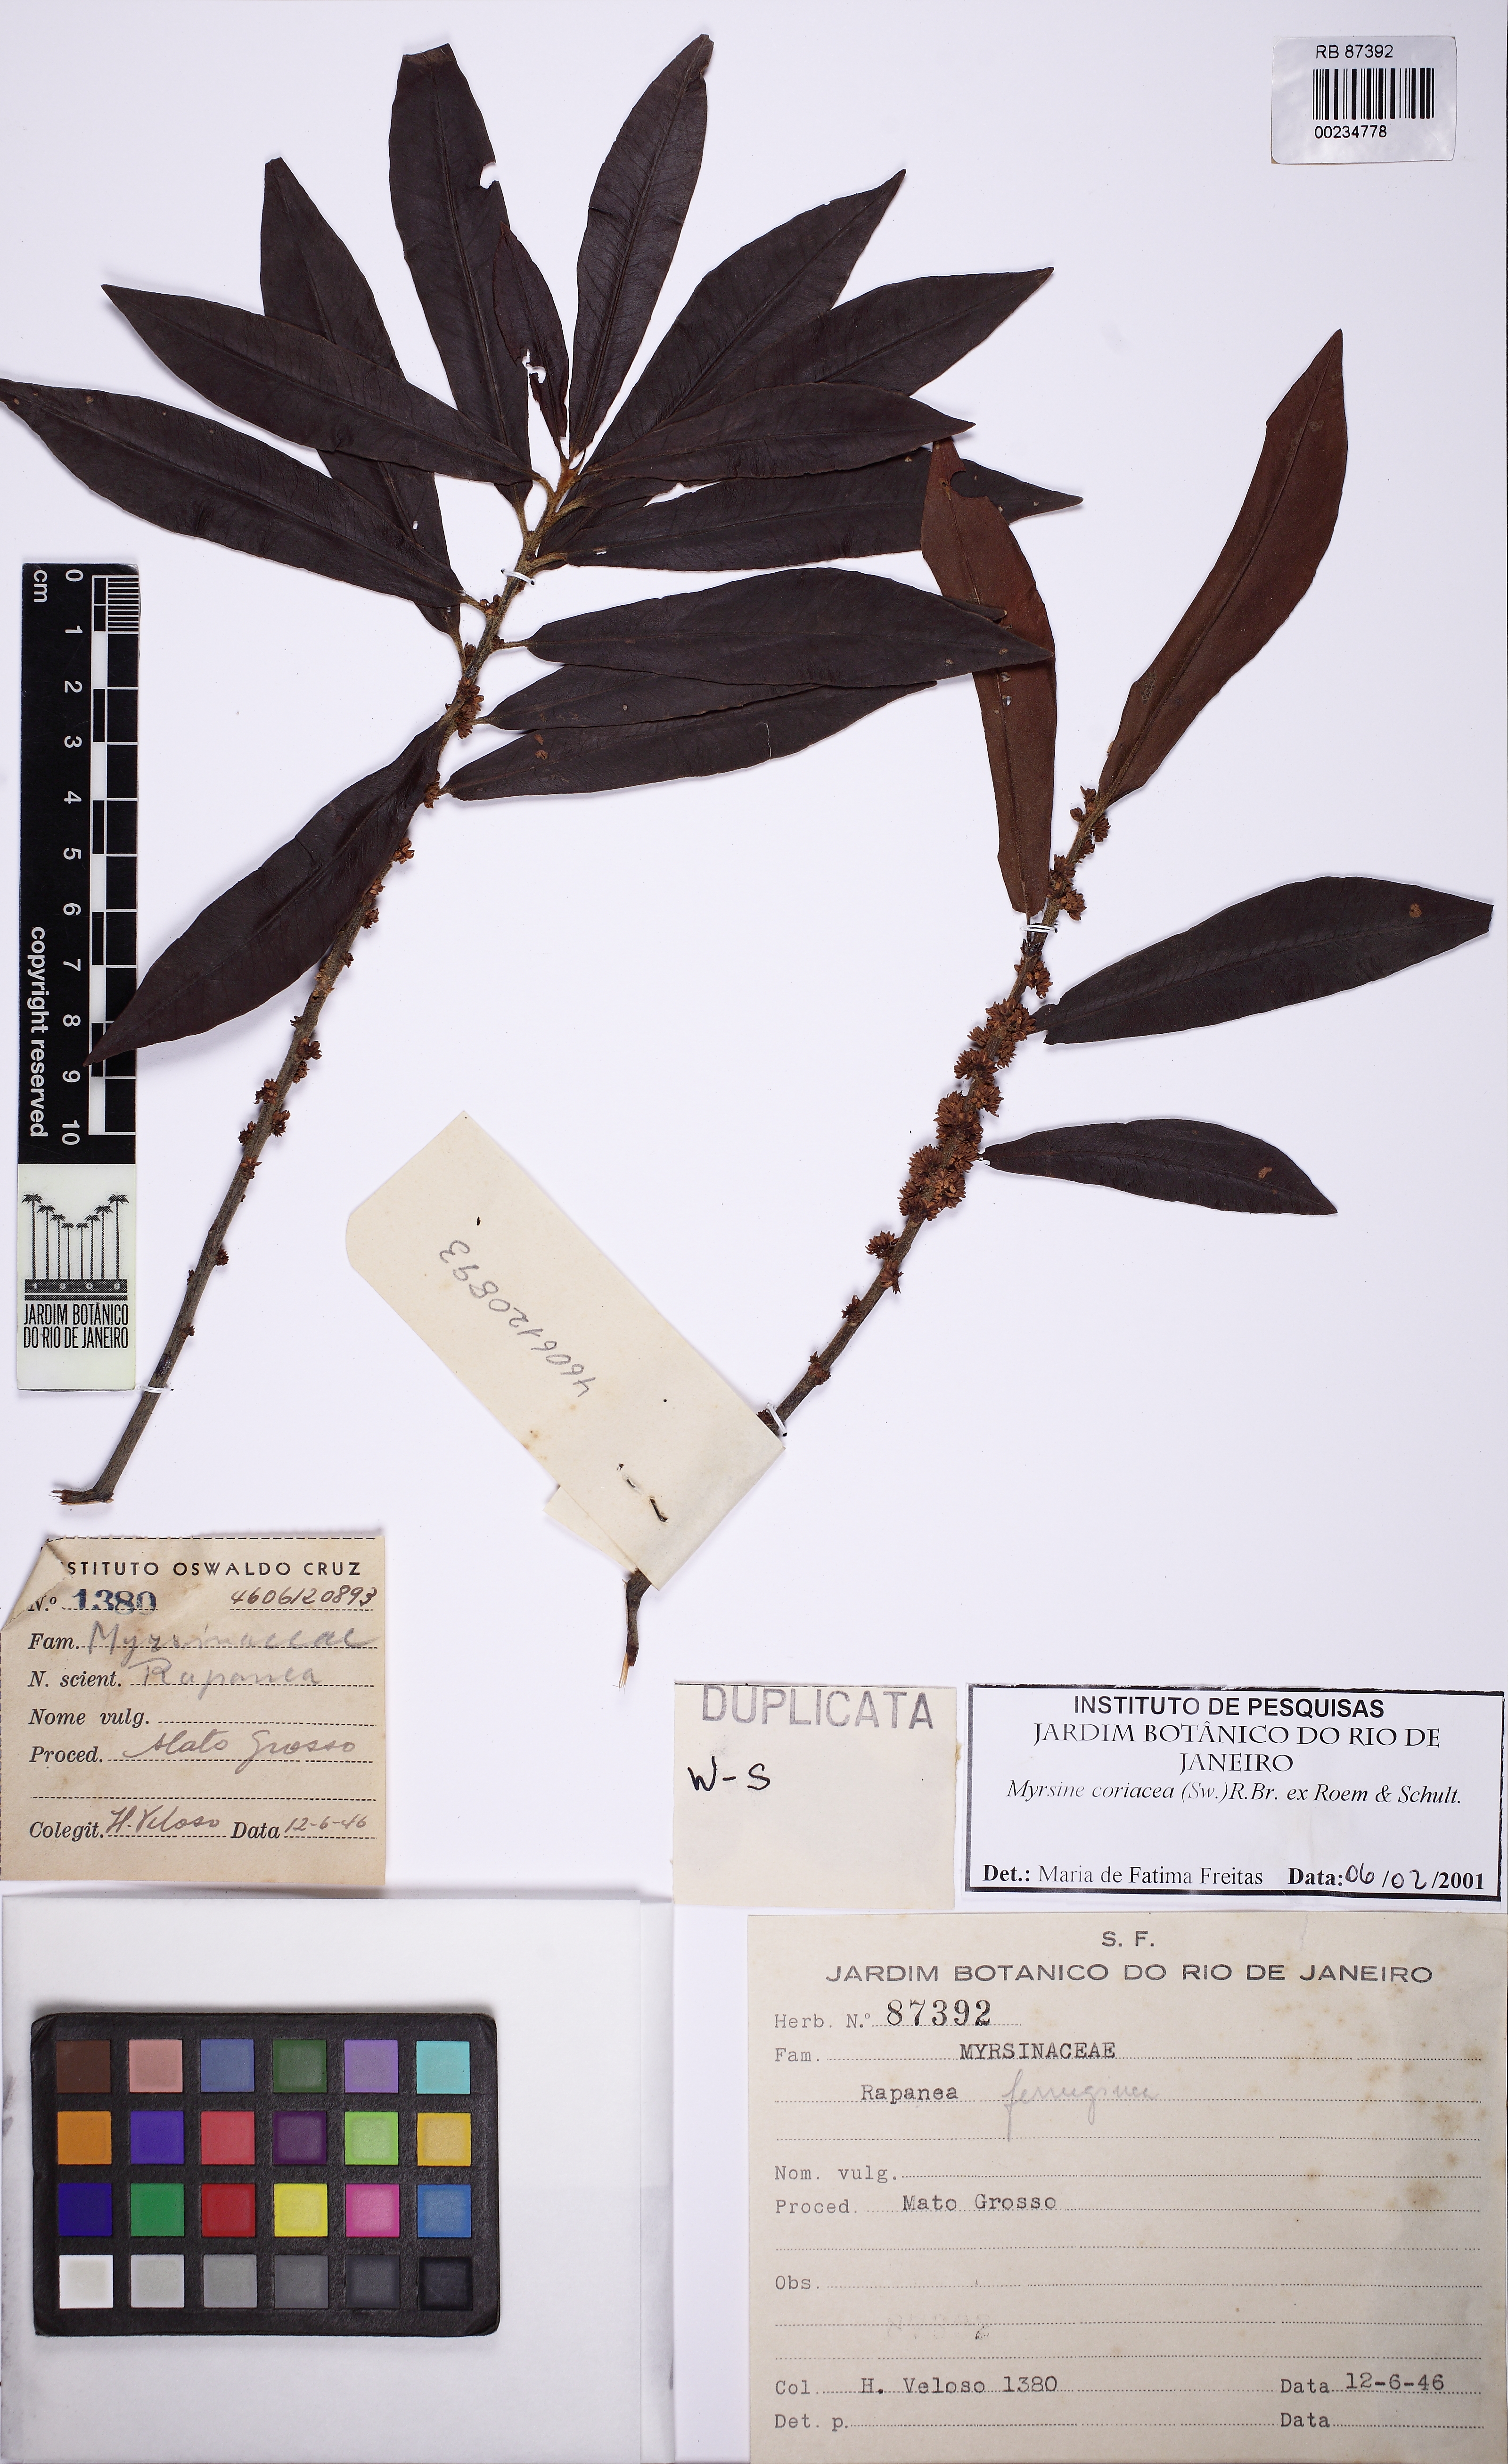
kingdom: Plantae
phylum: Tracheophyta
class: Magnoliopsida
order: Ericales
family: Primulaceae
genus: Myrsine
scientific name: Myrsine coriacea
